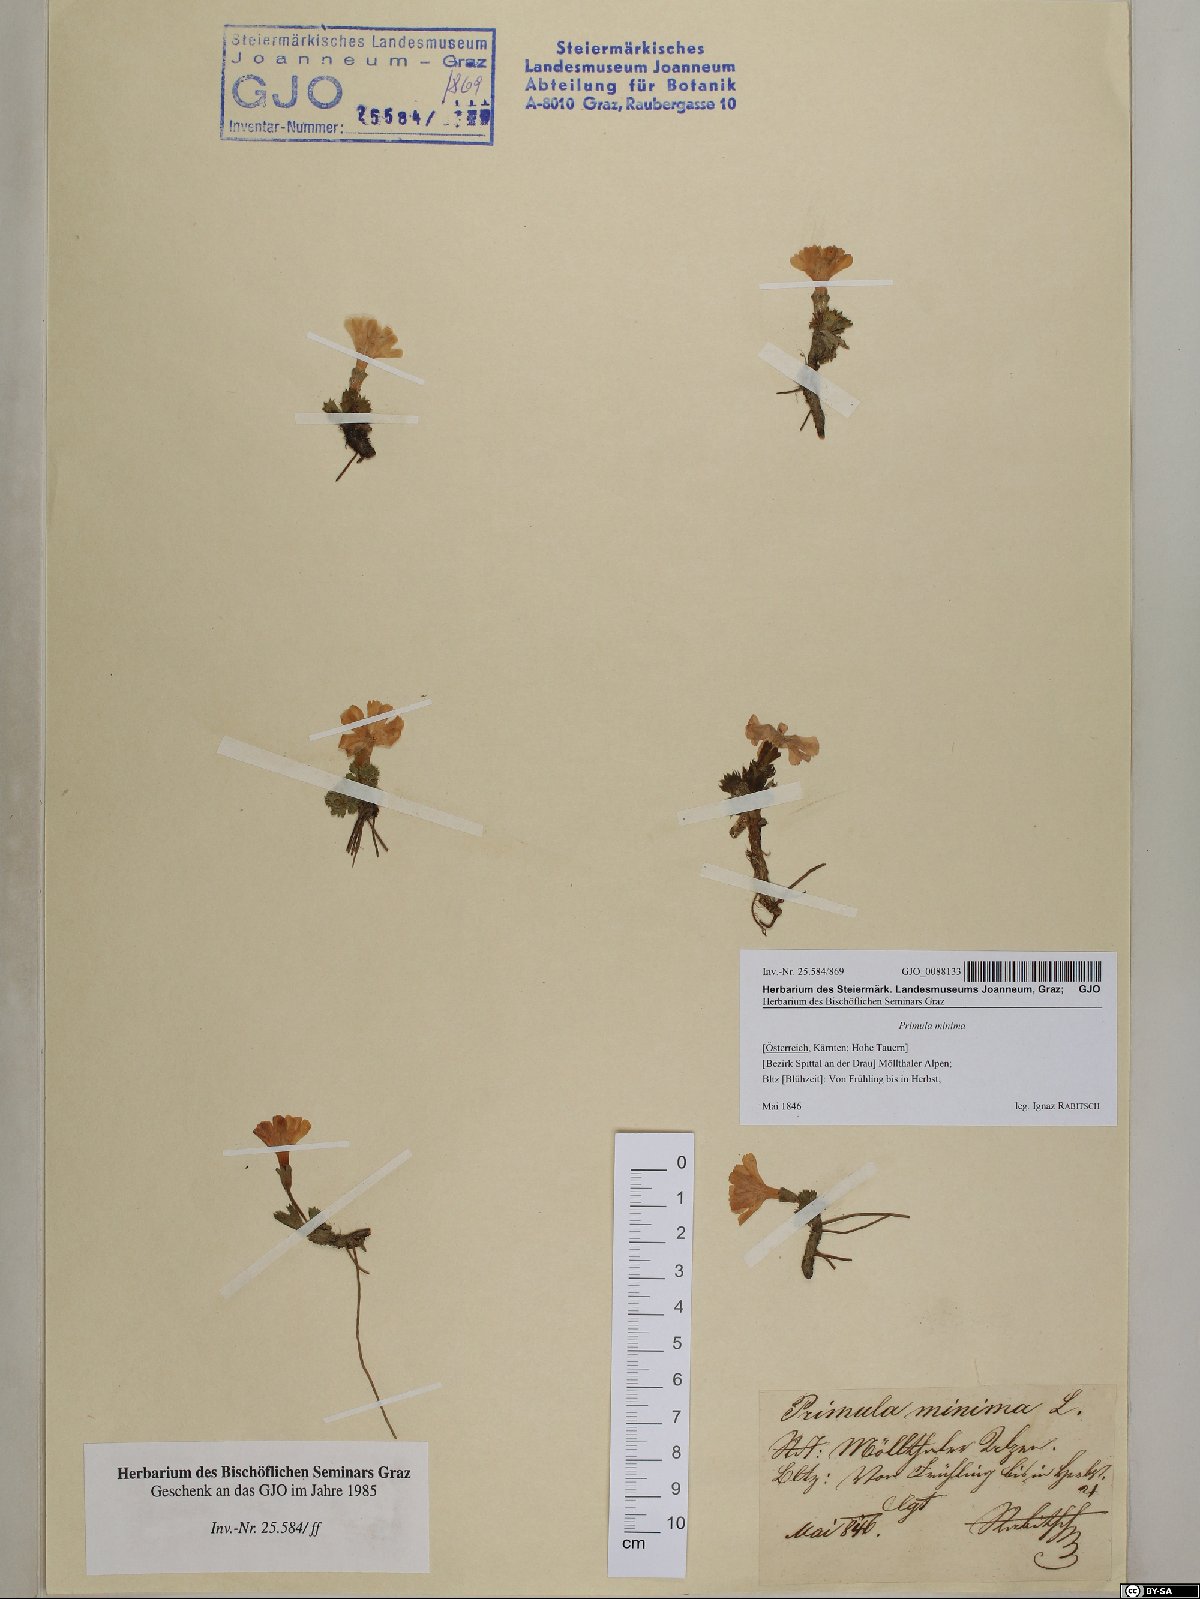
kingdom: Plantae
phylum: Tracheophyta
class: Magnoliopsida
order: Ericales
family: Primulaceae
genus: Primula
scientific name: Primula minima
